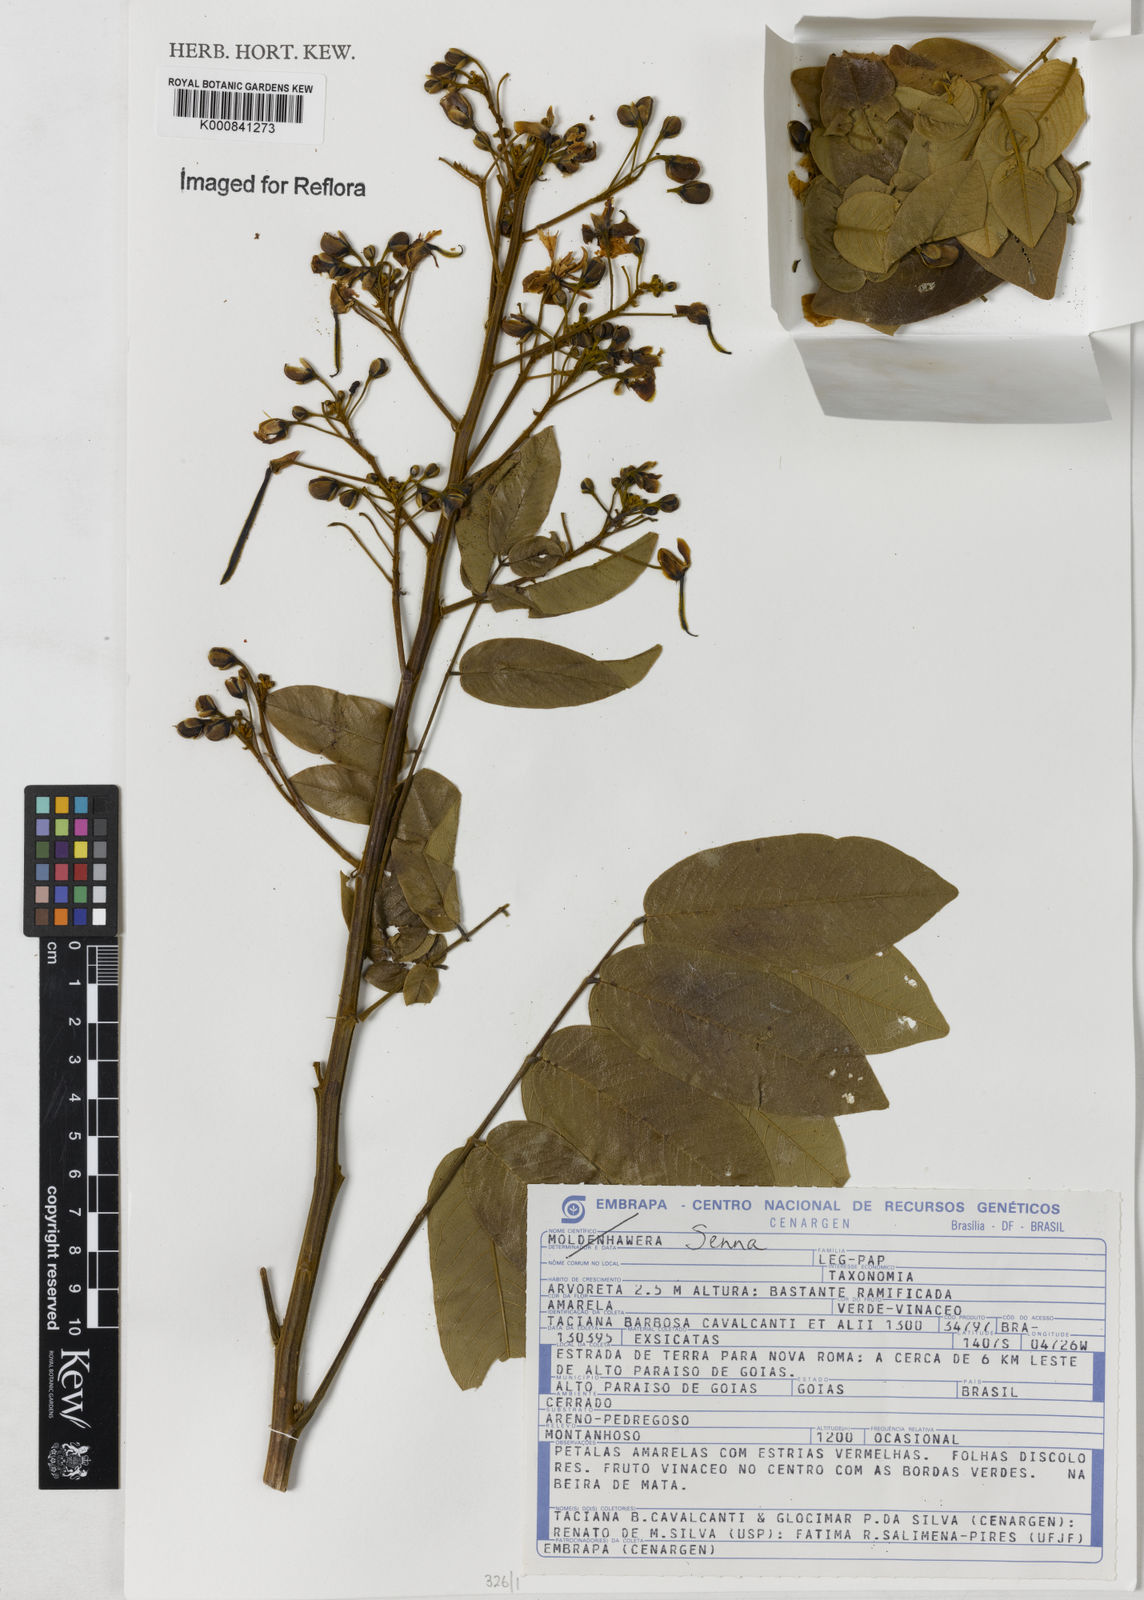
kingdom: Plantae
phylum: Tracheophyta
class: Magnoliopsida
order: Fabales
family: Fabaceae
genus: Senna
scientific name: Senna silvestris
